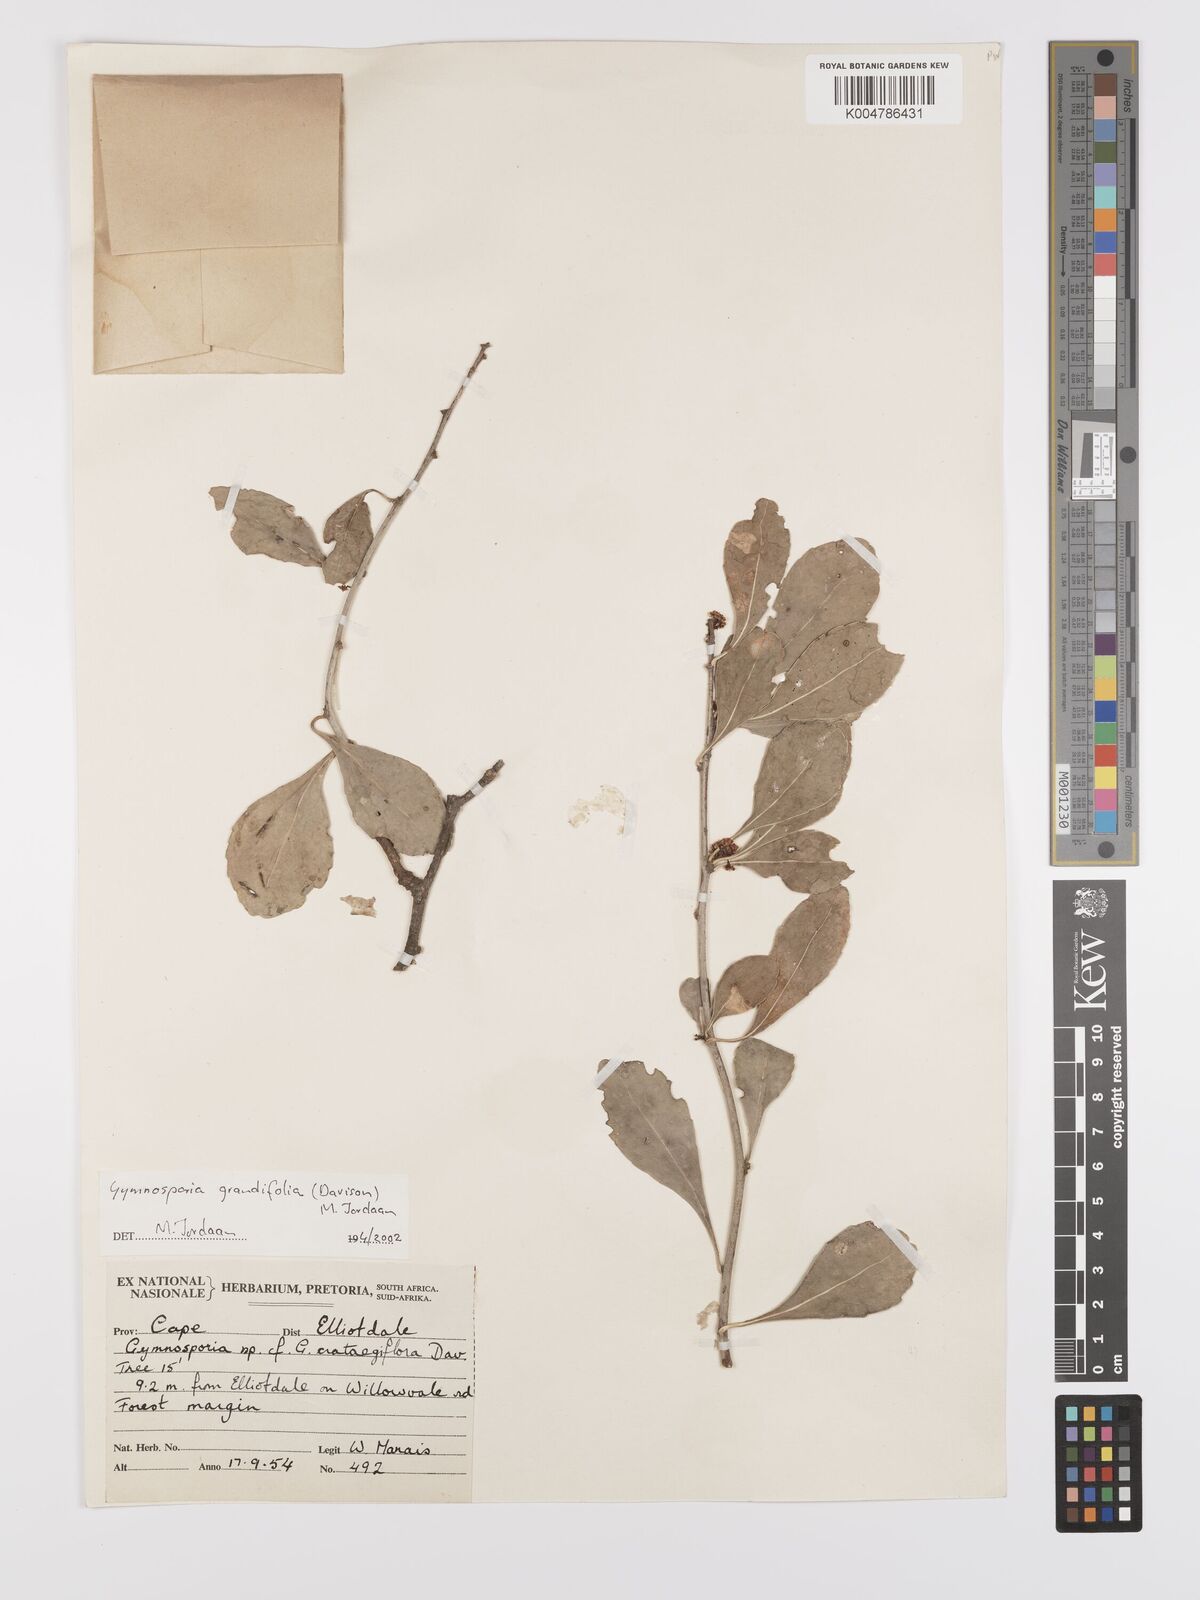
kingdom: Plantae
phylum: Tracheophyta
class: Magnoliopsida
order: Celastrales
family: Celastraceae
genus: Gymnosporia
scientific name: Gymnosporia grandifolia
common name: Large-fruited forest spike-thorn
